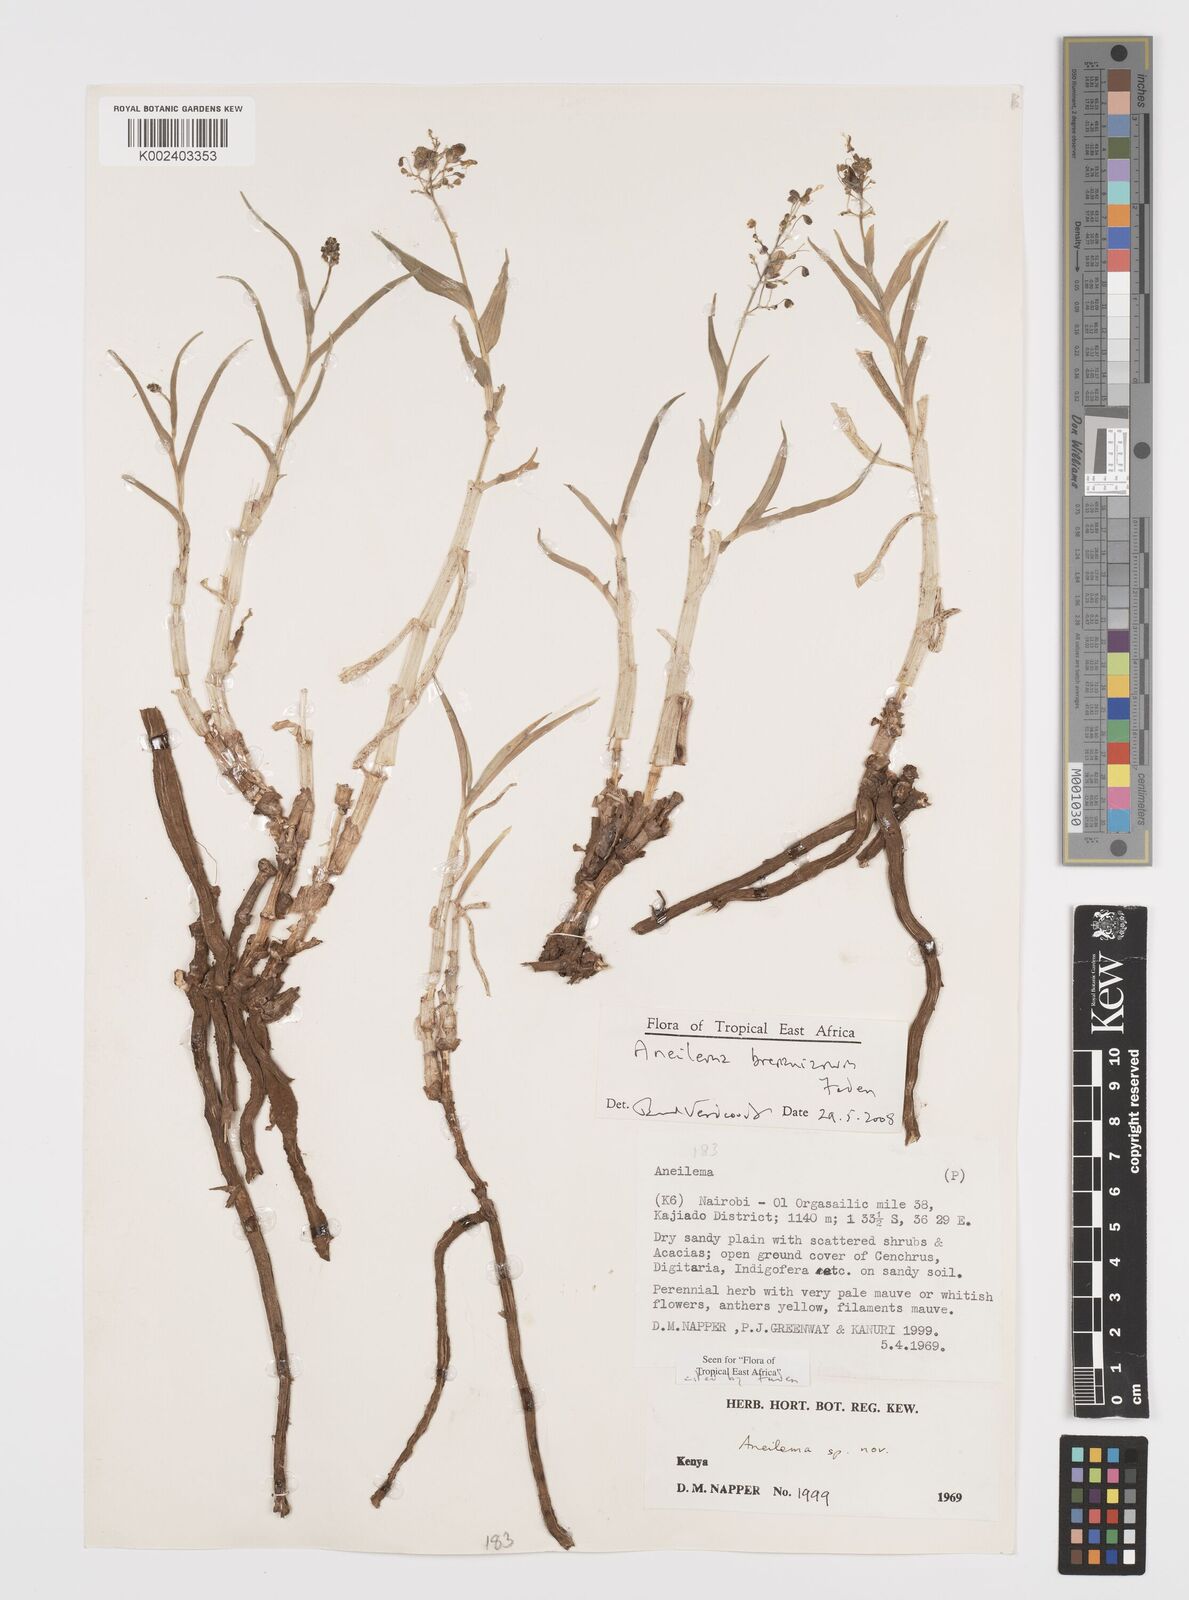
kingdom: Plantae
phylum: Tracheophyta
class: Liliopsida
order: Commelinales
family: Commelinaceae
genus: Aneilema
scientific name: Aneilema brenanianum
